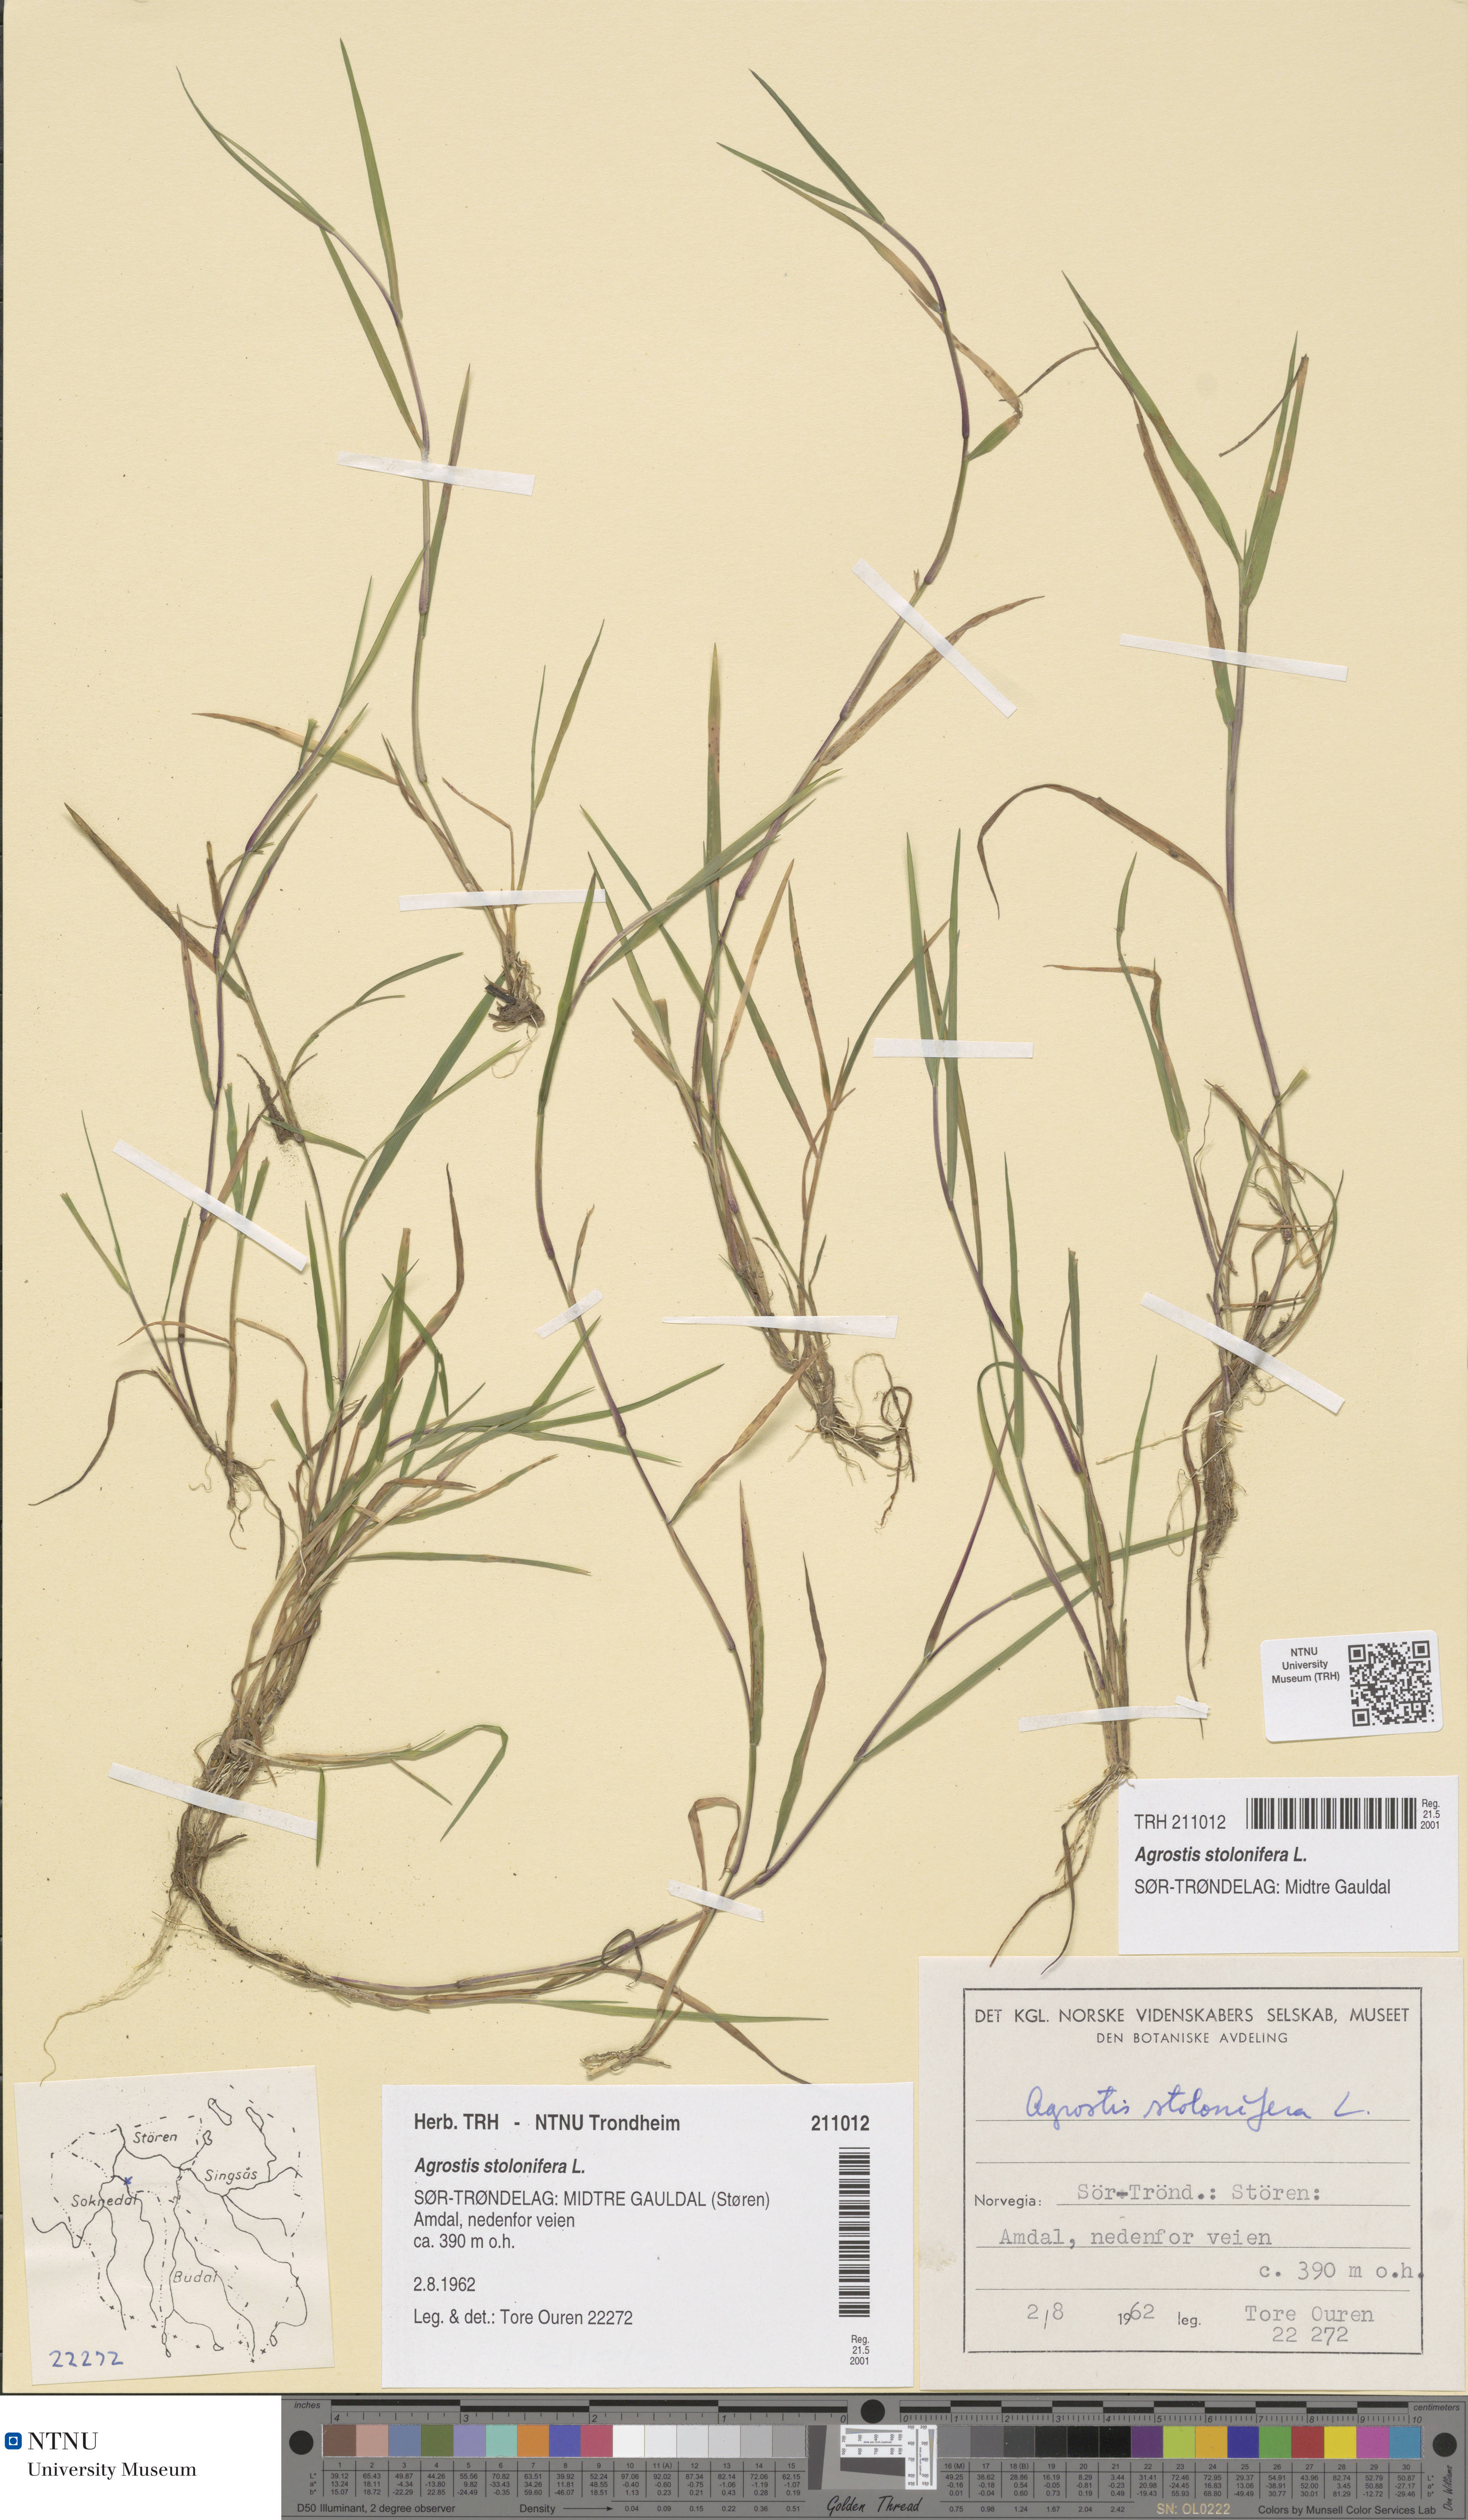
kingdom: Plantae
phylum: Tracheophyta
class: Liliopsida
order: Poales
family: Poaceae
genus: Agrostis
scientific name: Agrostis stolonifera
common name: Creeping bentgrass
